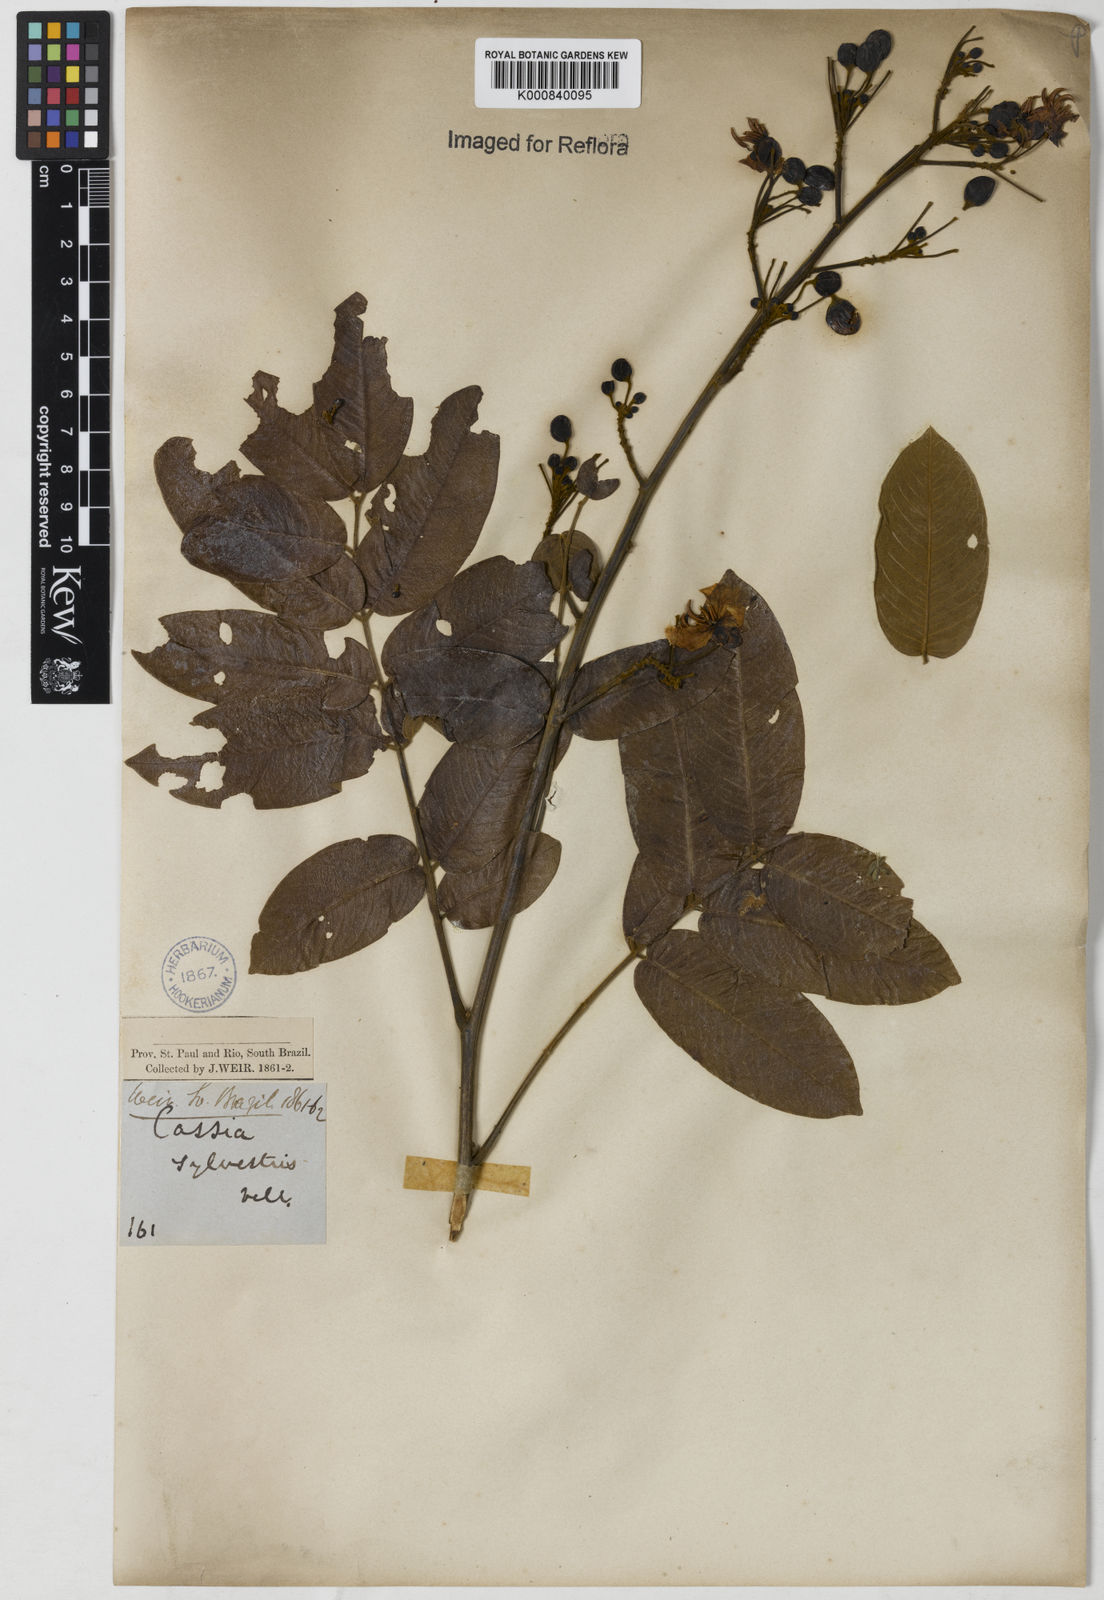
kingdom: Plantae
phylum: Tracheophyta
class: Magnoliopsida
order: Fabales
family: Fabaceae
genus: Senna
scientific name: Senna silvestris
